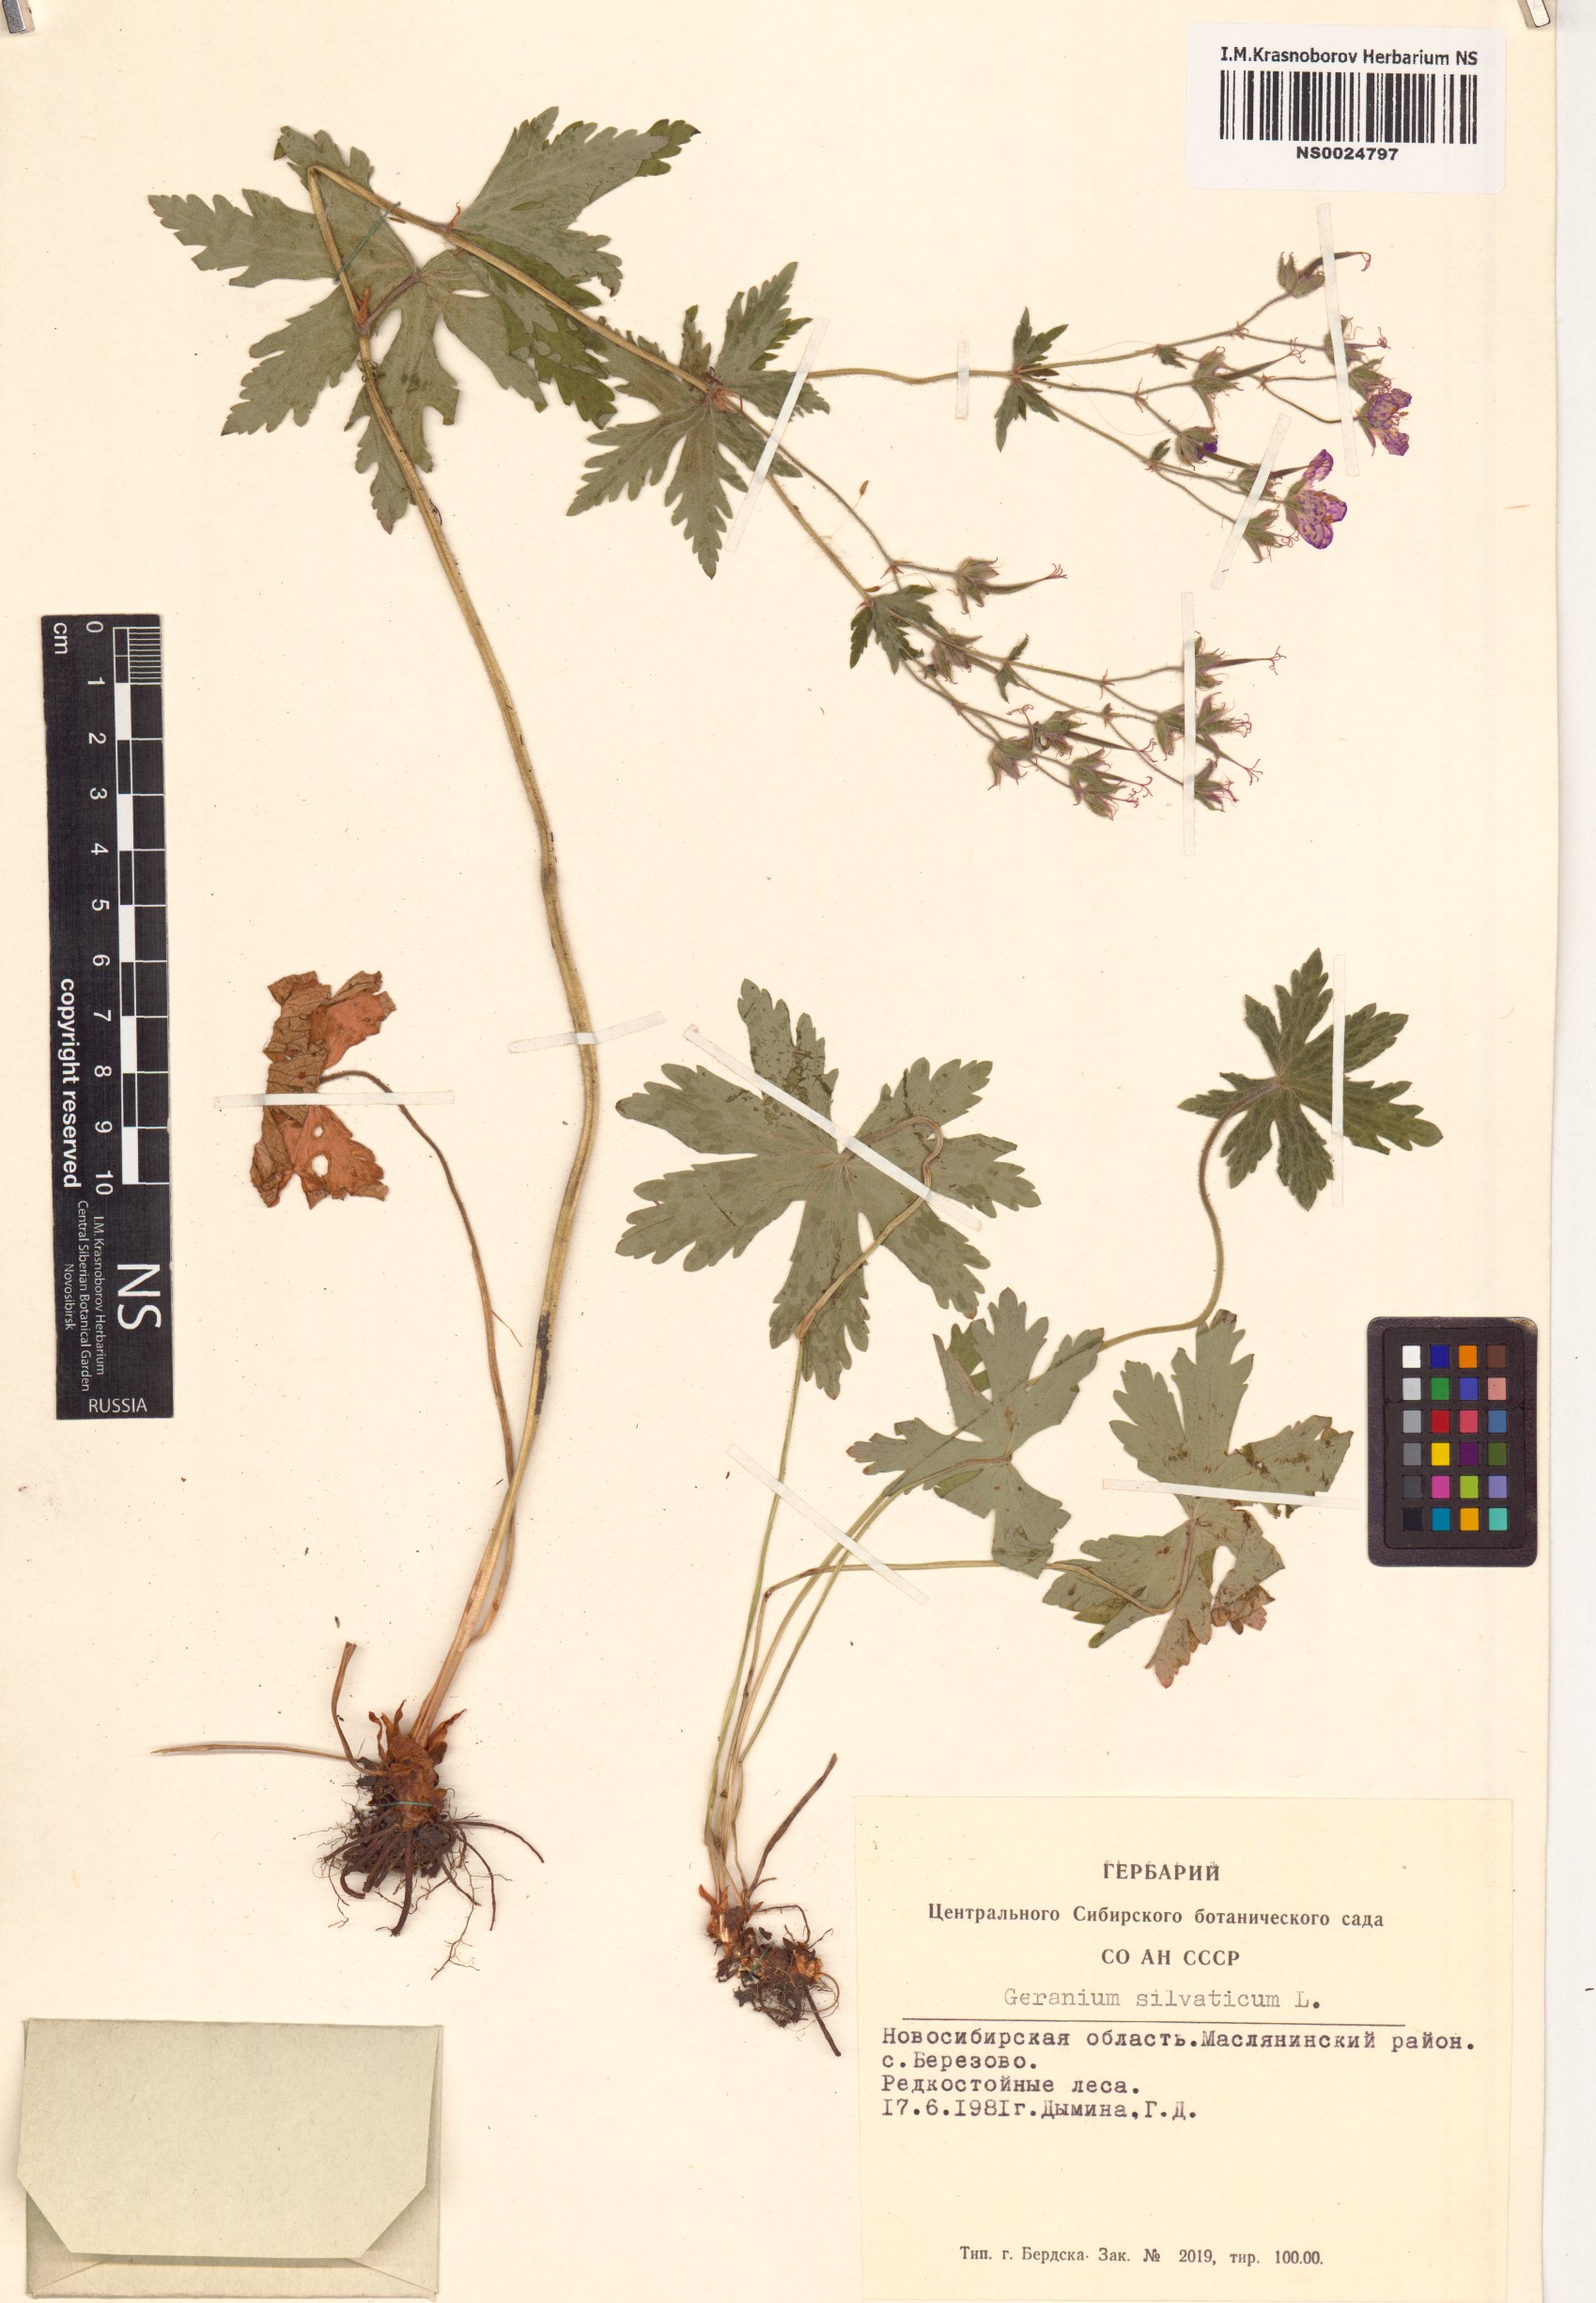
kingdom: Plantae
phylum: Tracheophyta
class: Magnoliopsida
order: Geraniales
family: Geraniaceae
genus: Geranium
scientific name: Geranium sylvaticum
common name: Wood crane's-bill
